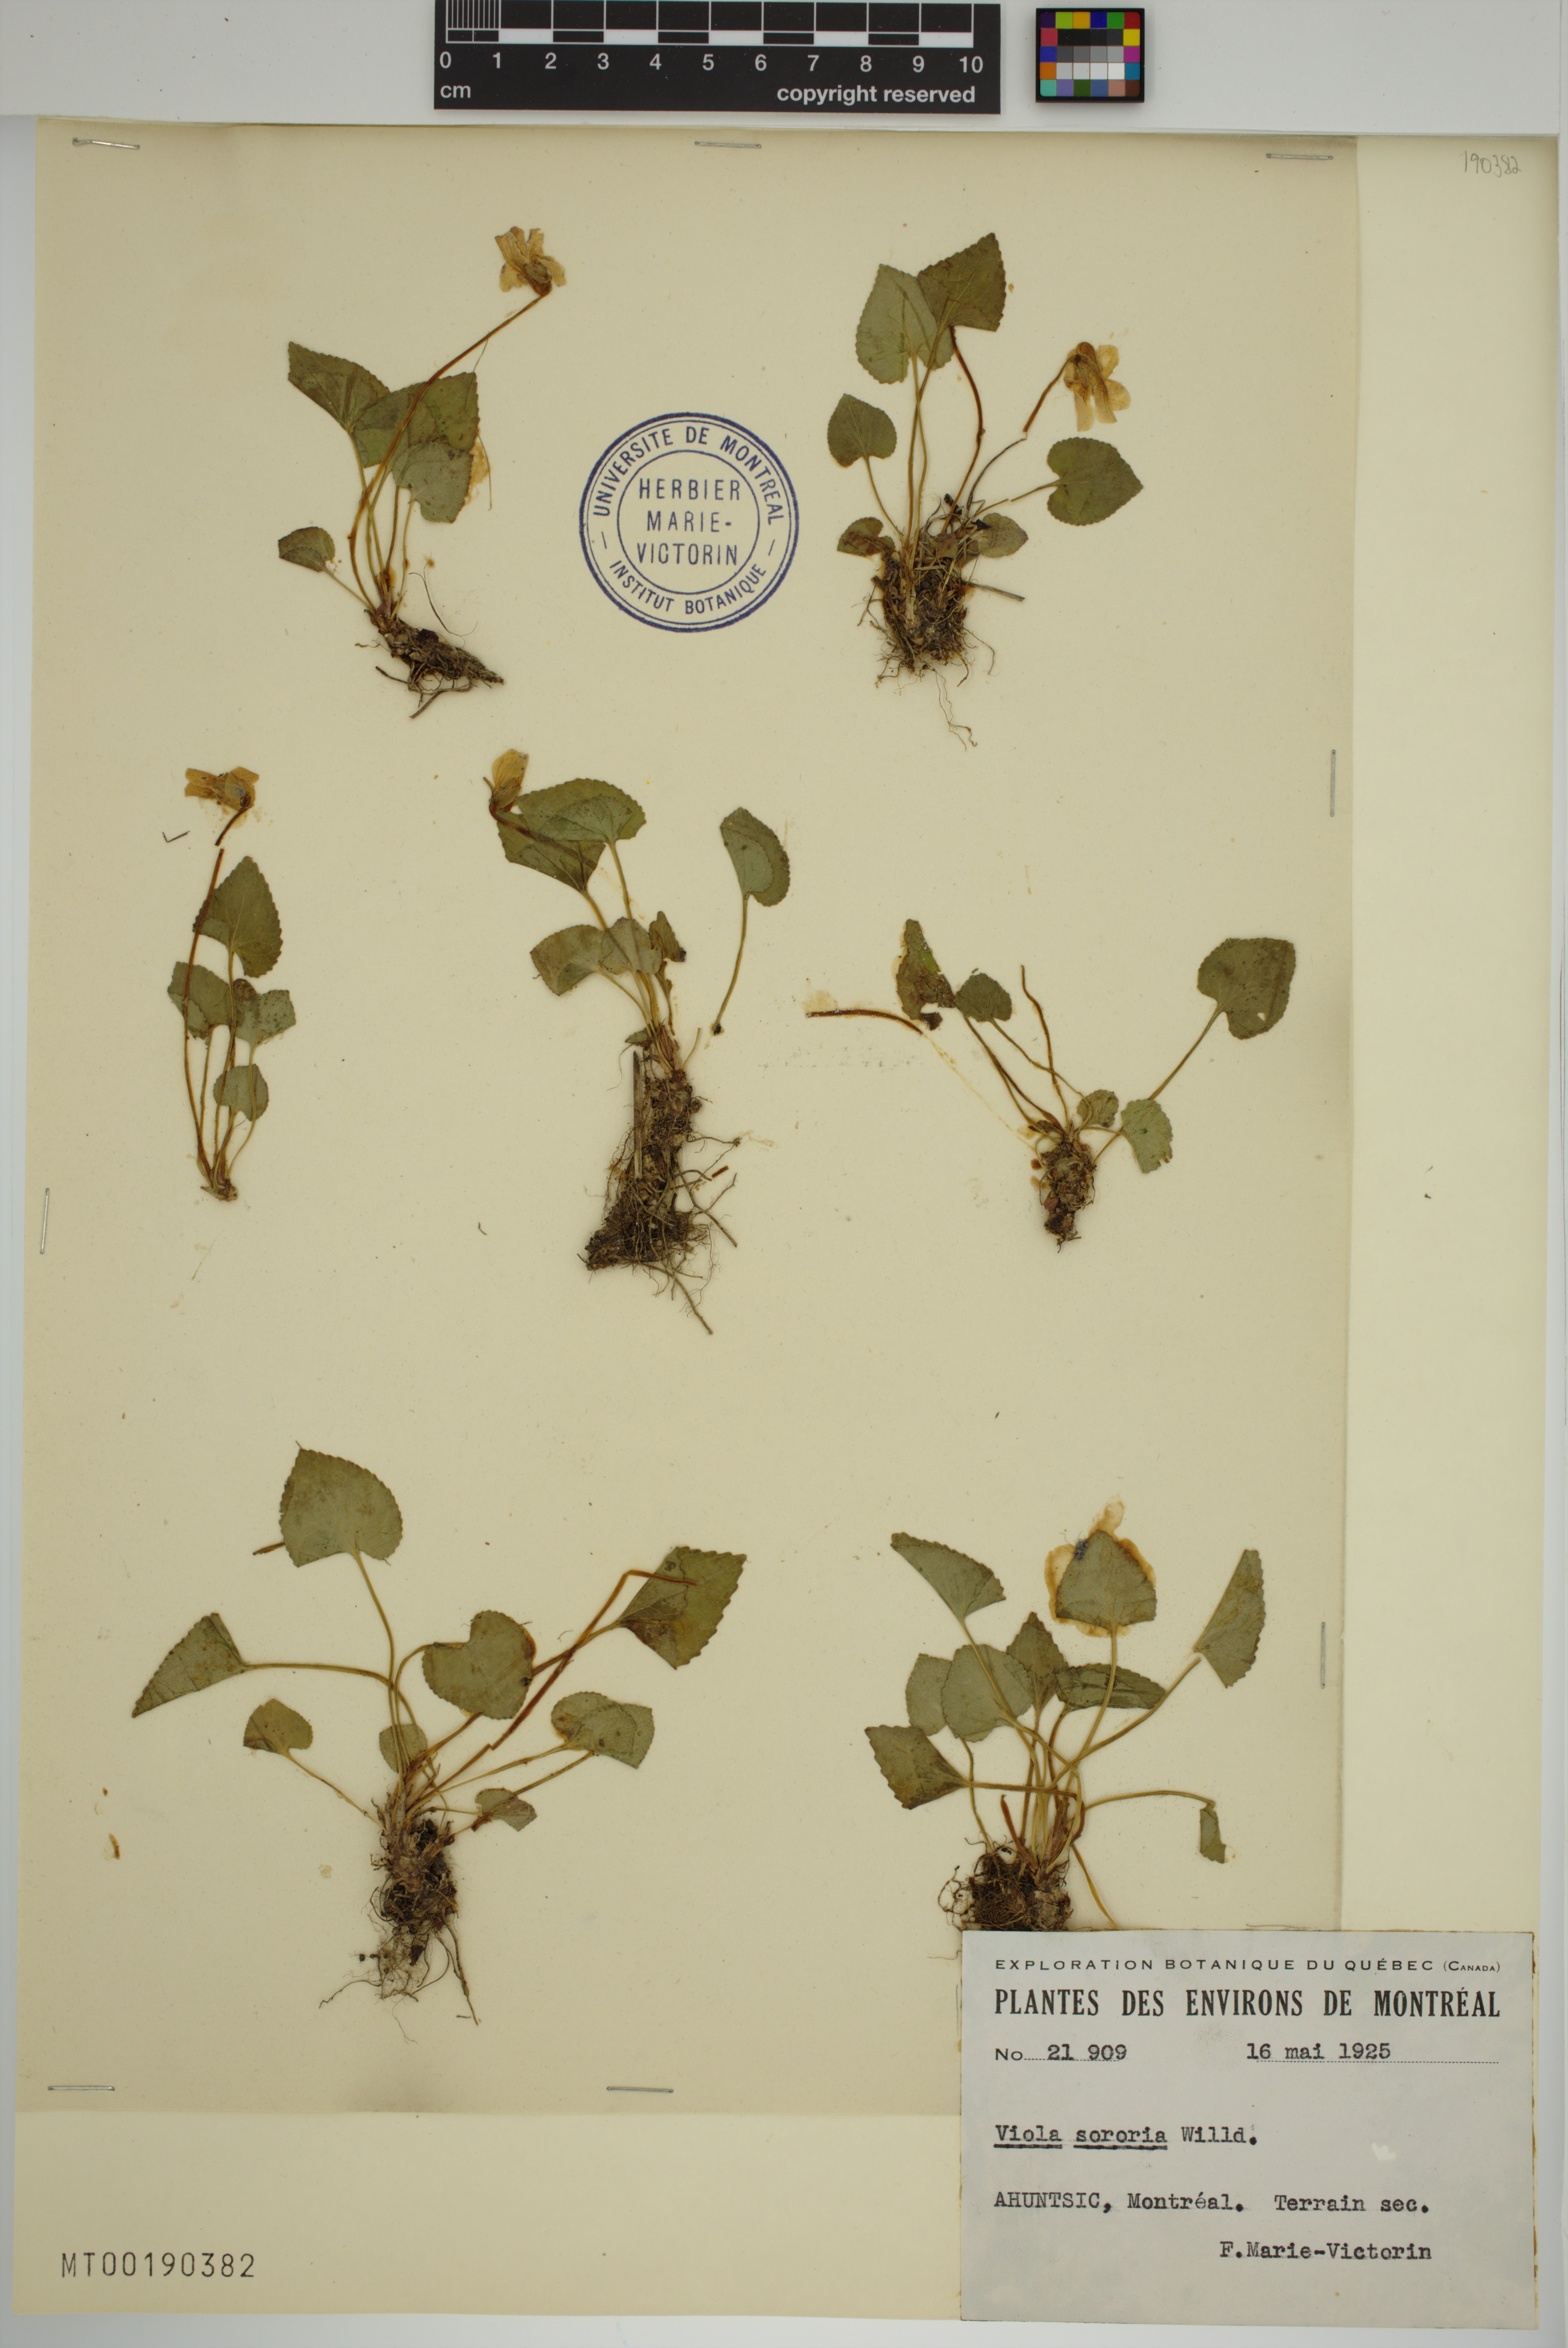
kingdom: Plantae
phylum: Tracheophyta
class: Magnoliopsida
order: Malpighiales
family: Violaceae
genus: Viola
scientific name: Viola sororia
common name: Dooryard violet
